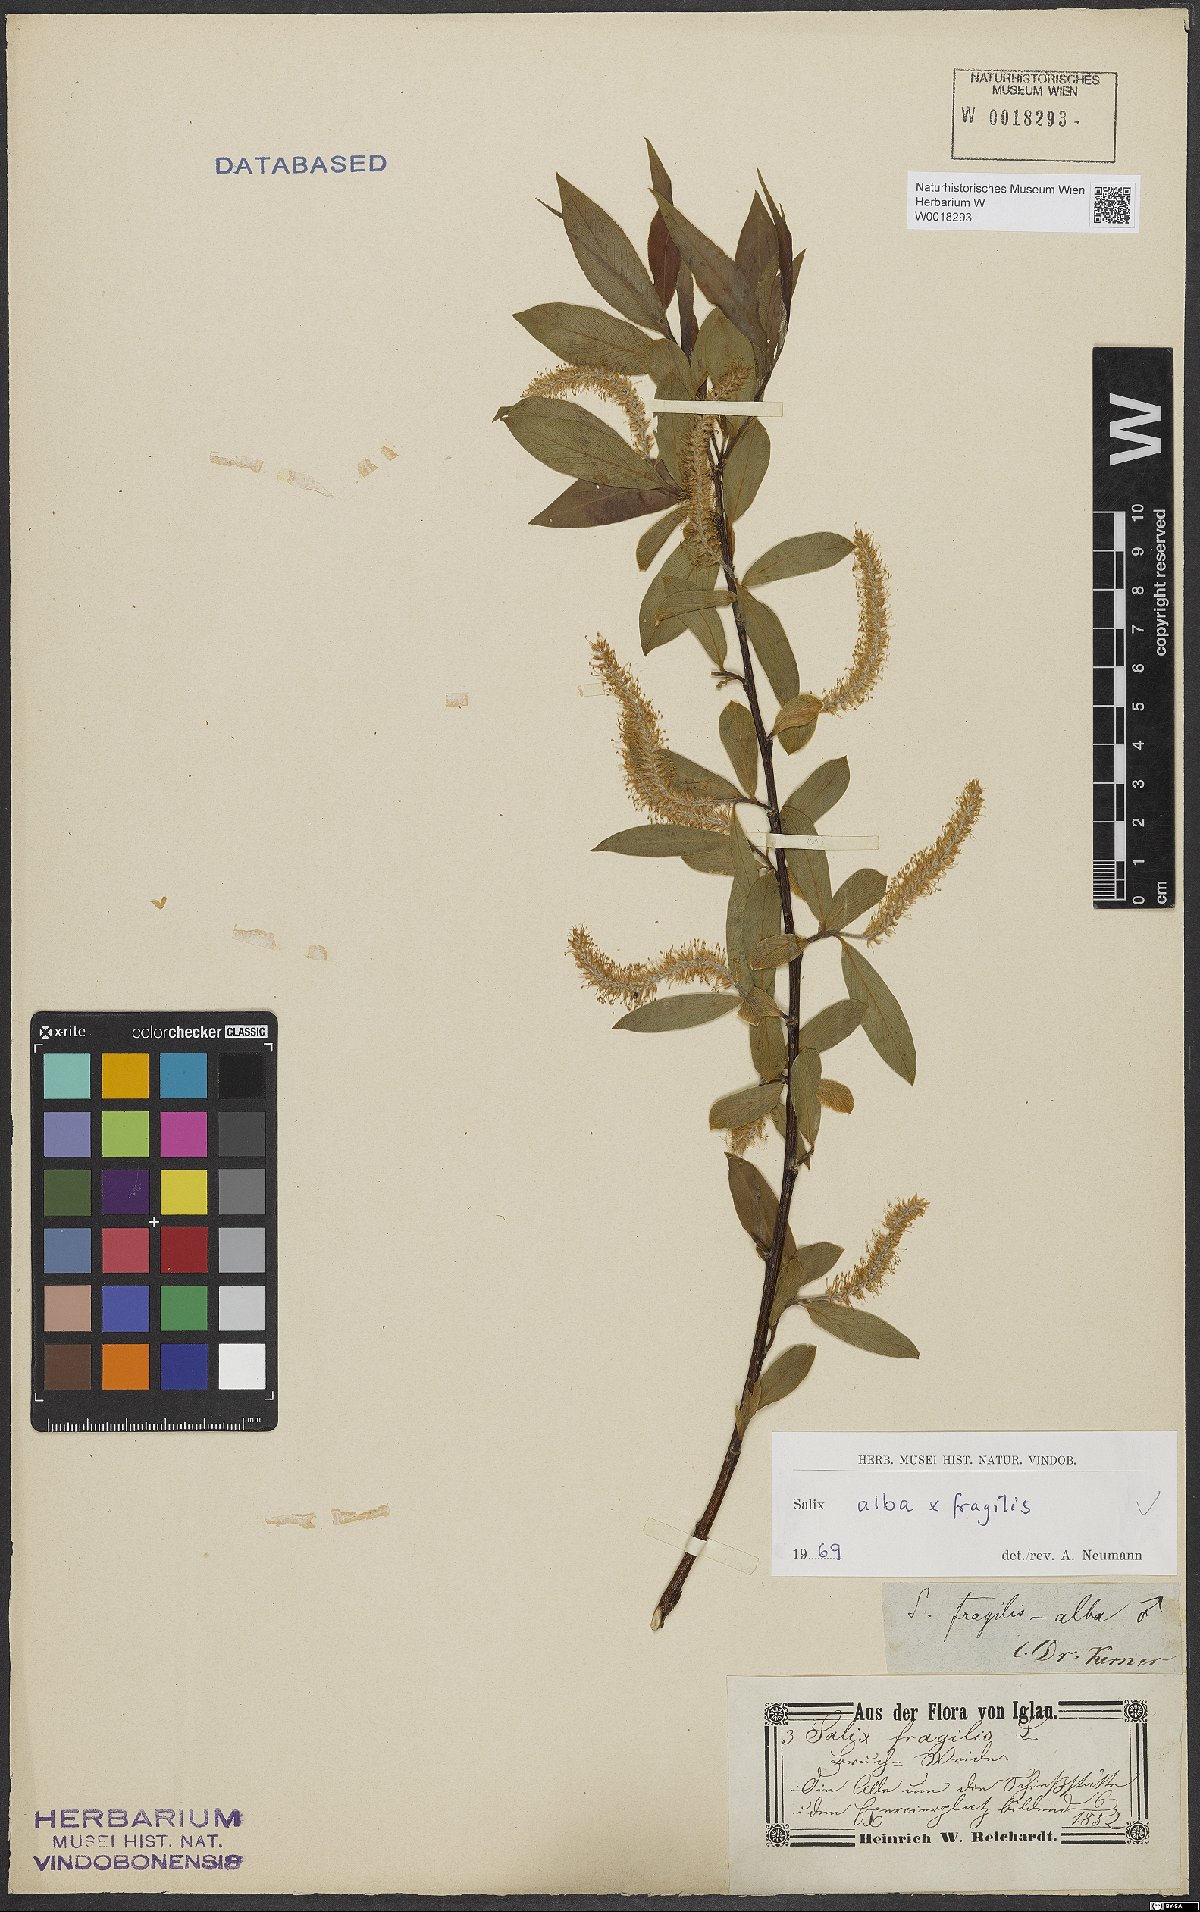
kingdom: Plantae
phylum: Tracheophyta
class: Magnoliopsida
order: Malpighiales
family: Salicaceae
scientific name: Salicaceae
